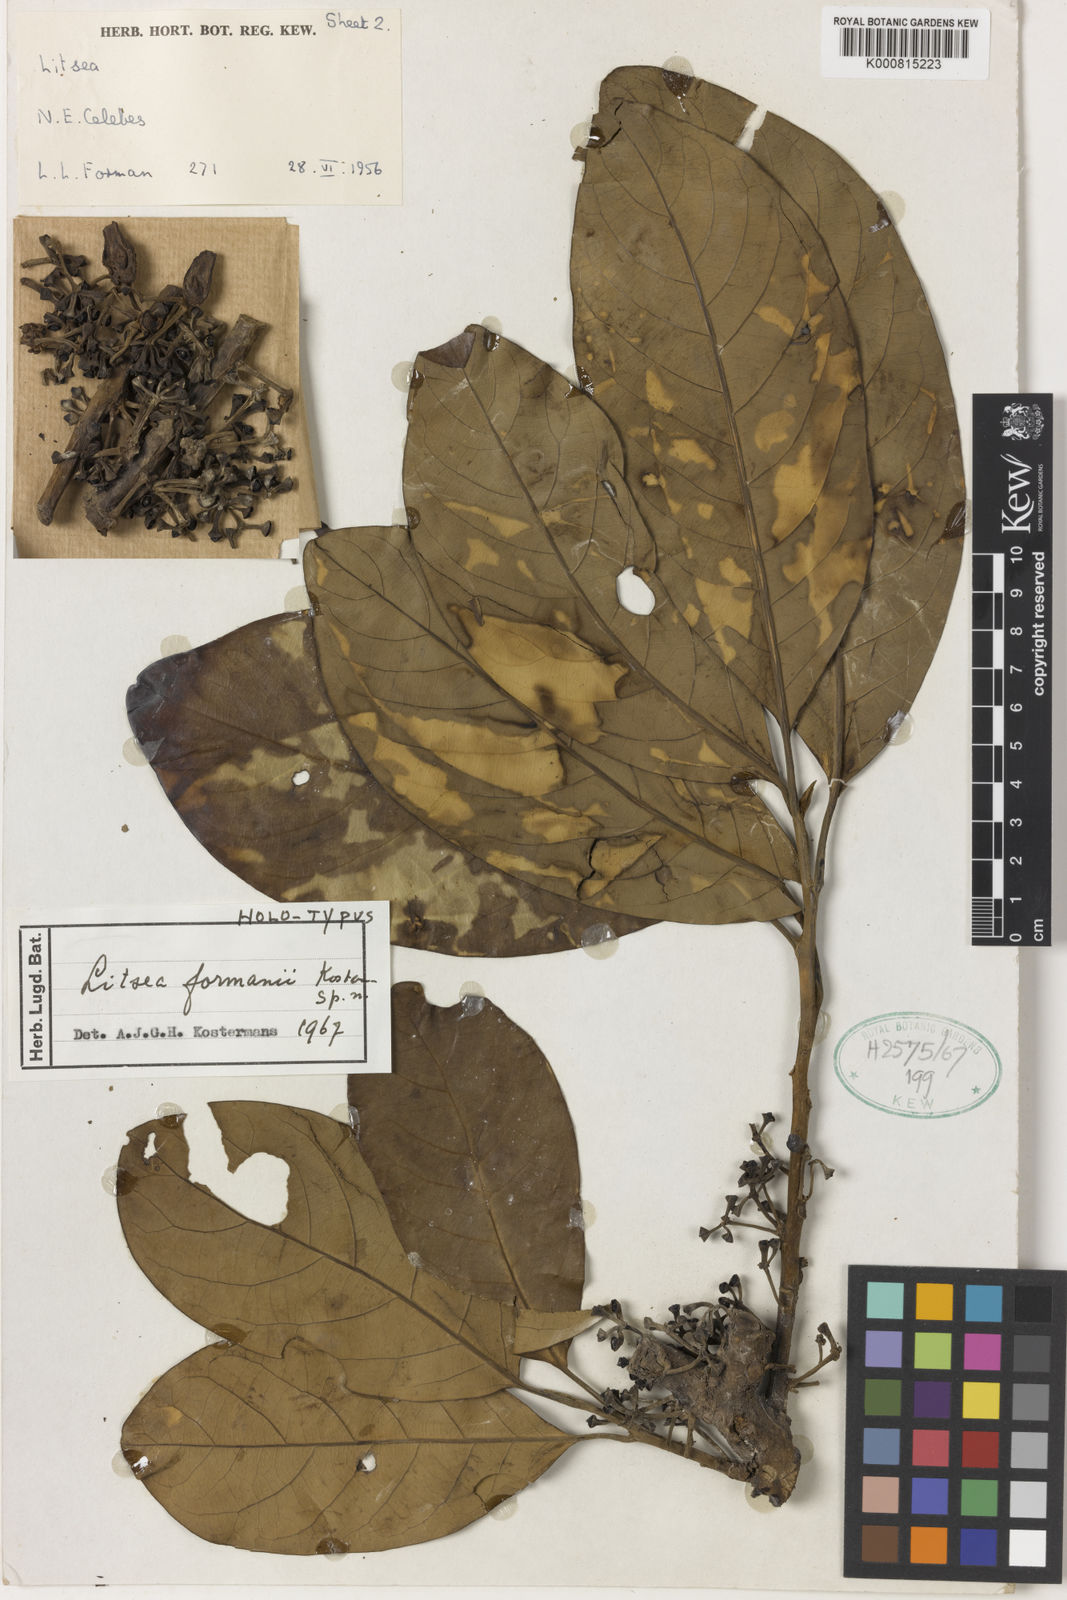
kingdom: Plantae
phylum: Tracheophyta
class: Magnoliopsida
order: Laurales
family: Lauraceae
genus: Litsea
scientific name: Litsea formanii
